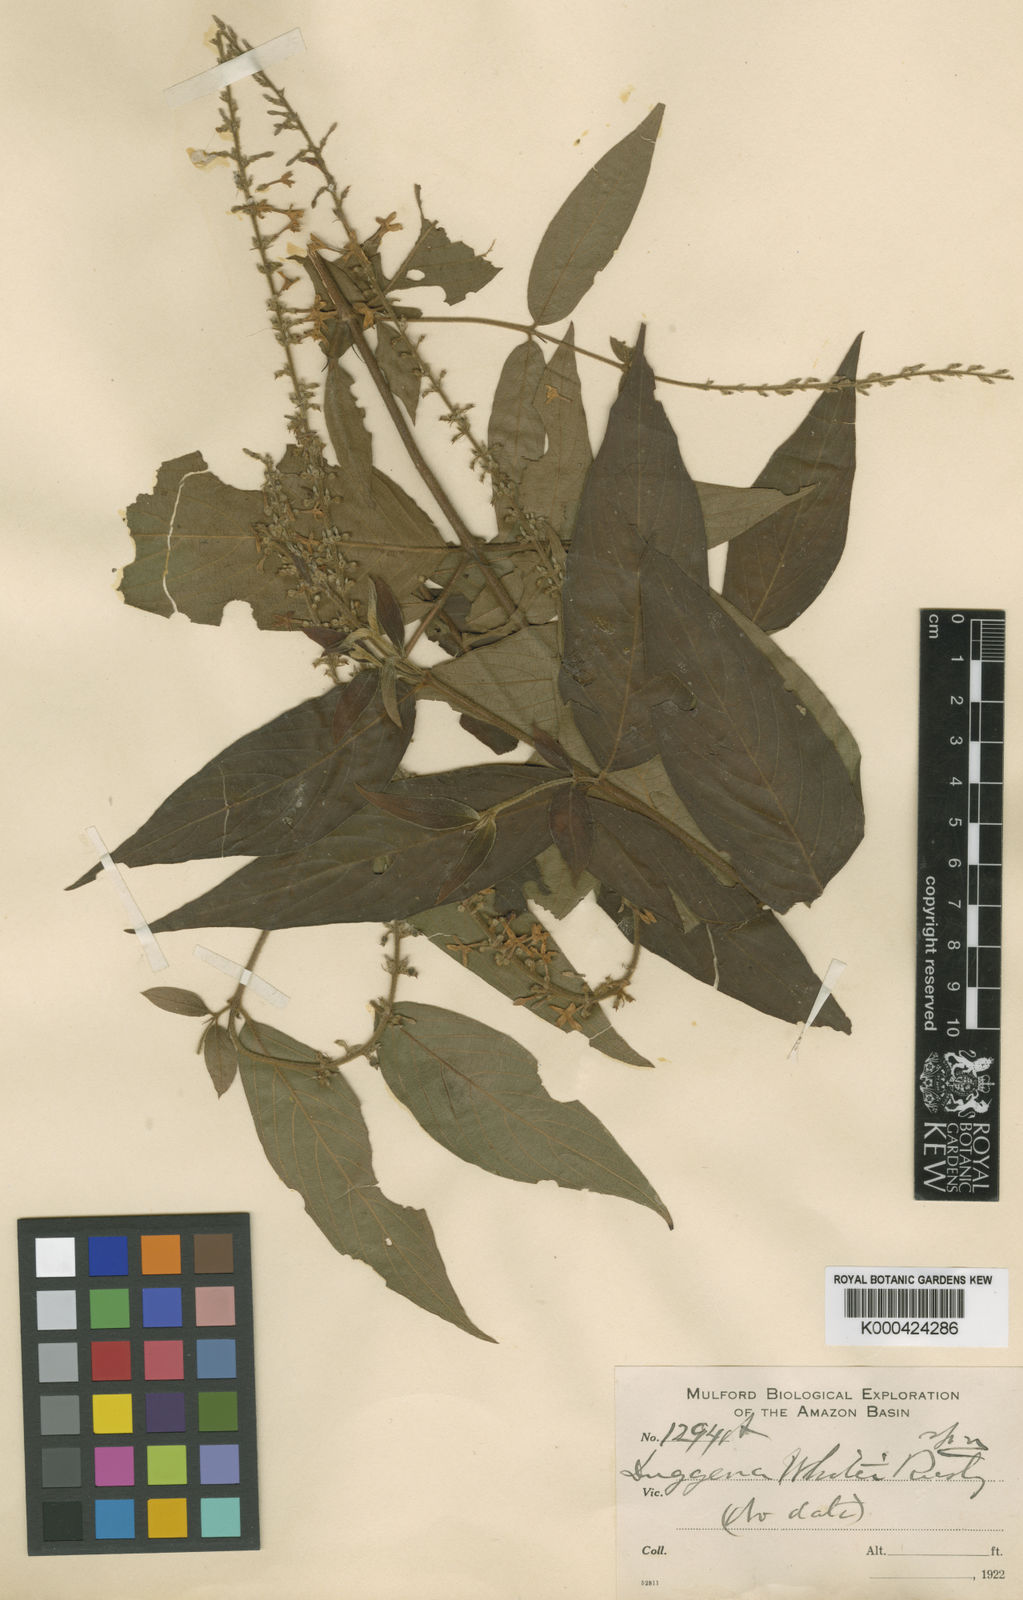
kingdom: Plantae
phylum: Tracheophyta
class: Magnoliopsida
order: Gentianales
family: Rubiaceae
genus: Gonzalagunia
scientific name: Gonzalagunia whitei
